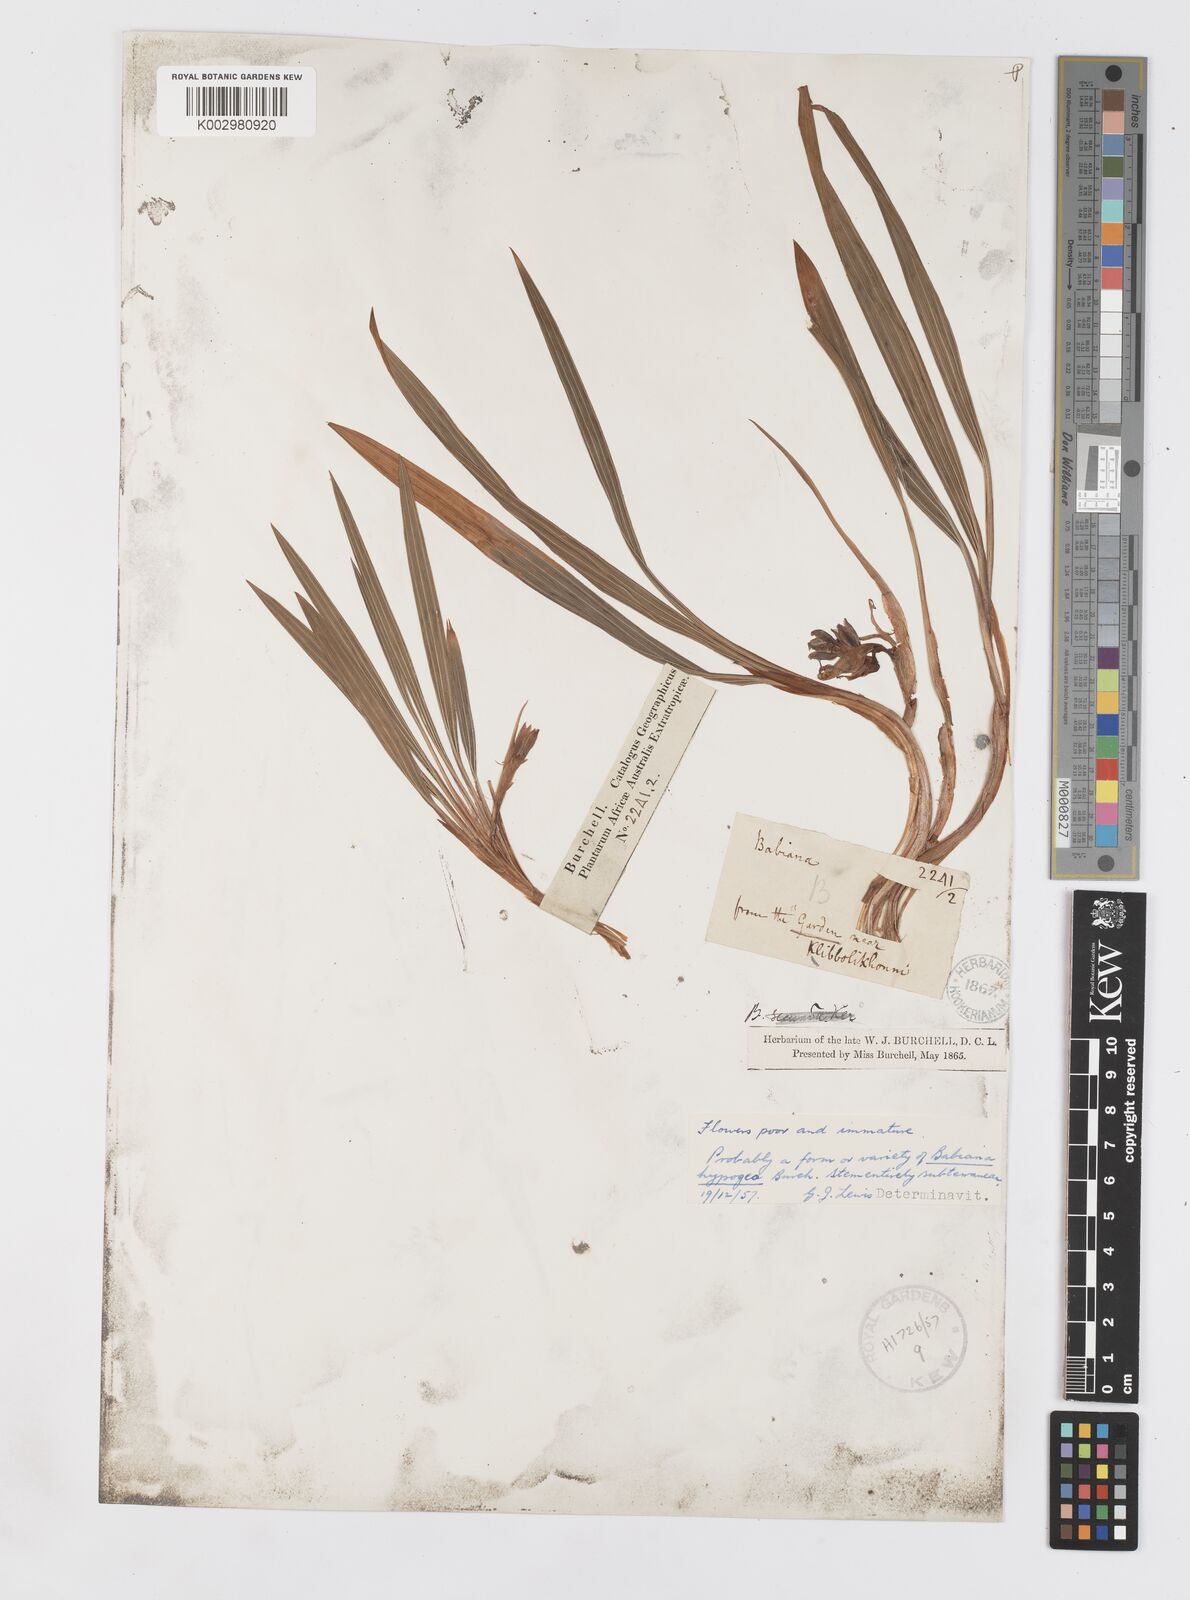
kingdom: Plantae
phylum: Tracheophyta
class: Liliopsida
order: Asparagales
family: Iridaceae
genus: Babiana
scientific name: Babiana hypogaea
